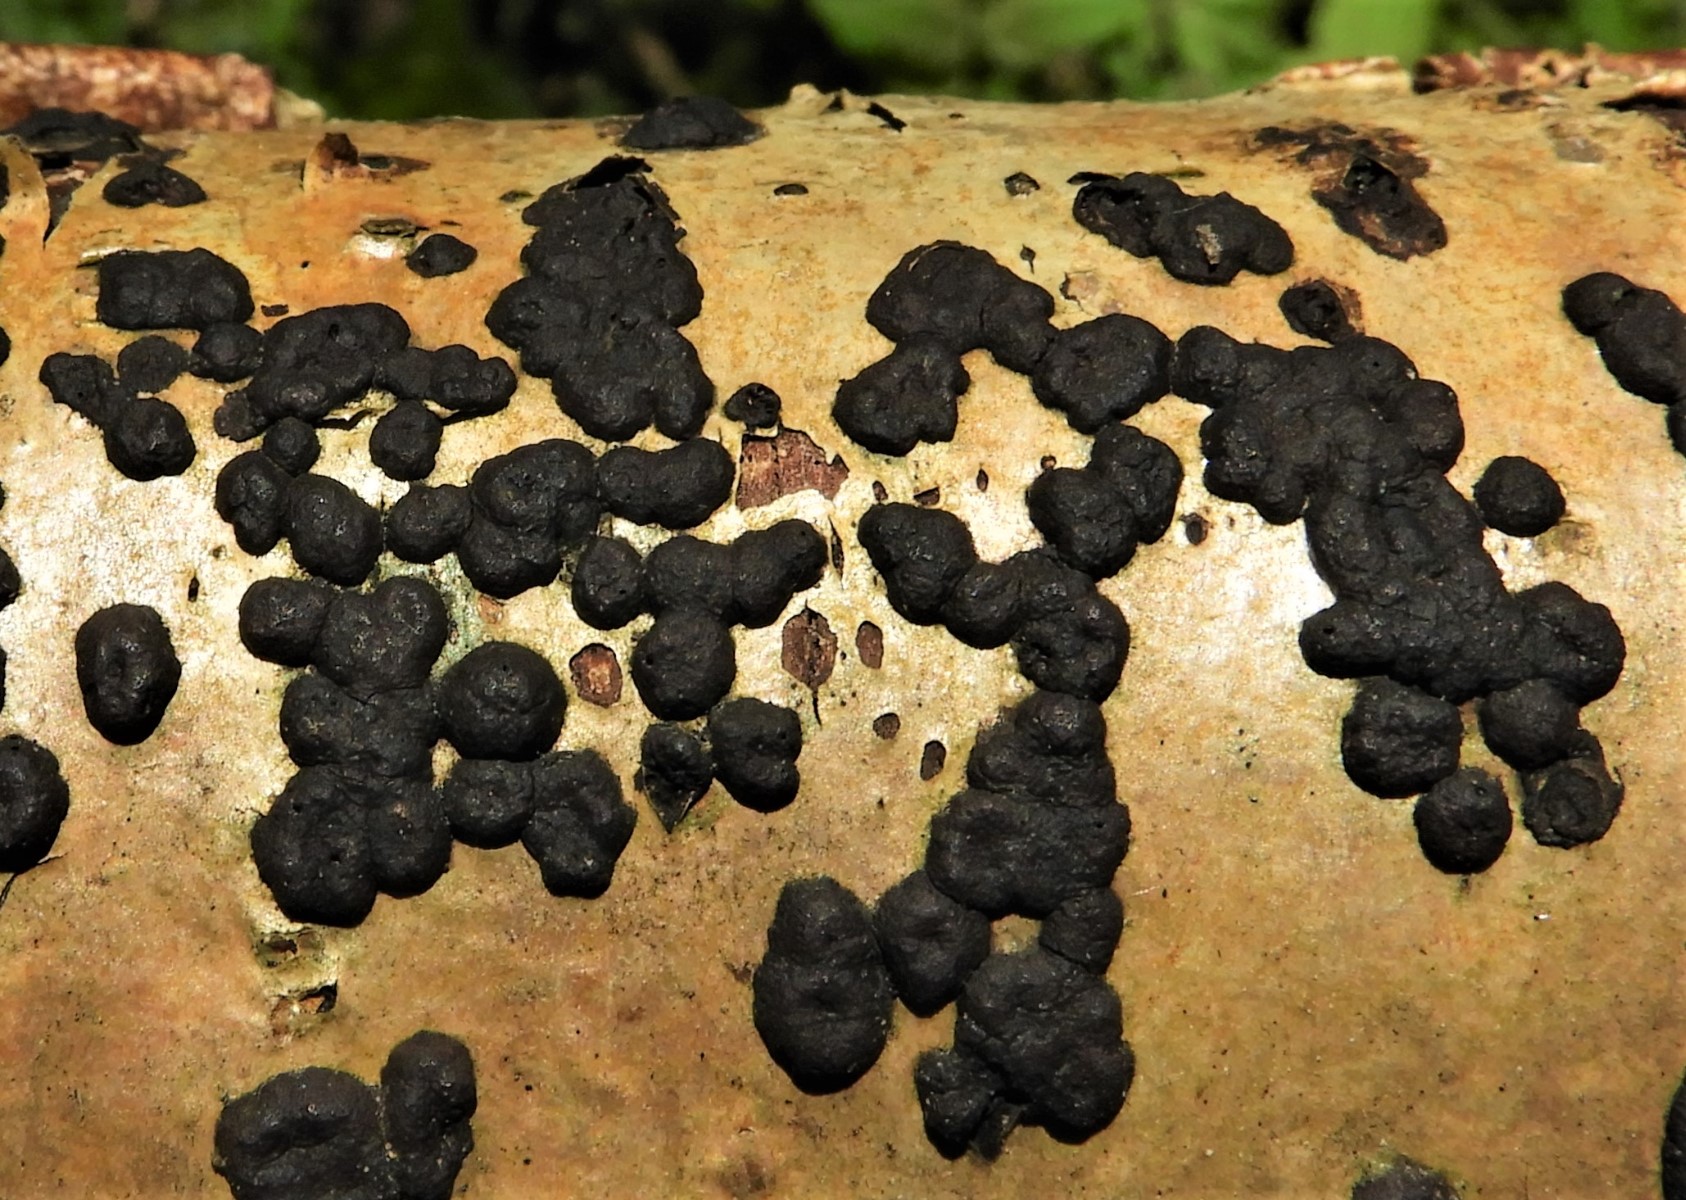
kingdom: Fungi
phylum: Ascomycota
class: Sordariomycetes
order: Xylariales
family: Hypoxylaceae
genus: Hypoxylon
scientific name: Hypoxylon fuscum
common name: kegleformet kulbær
